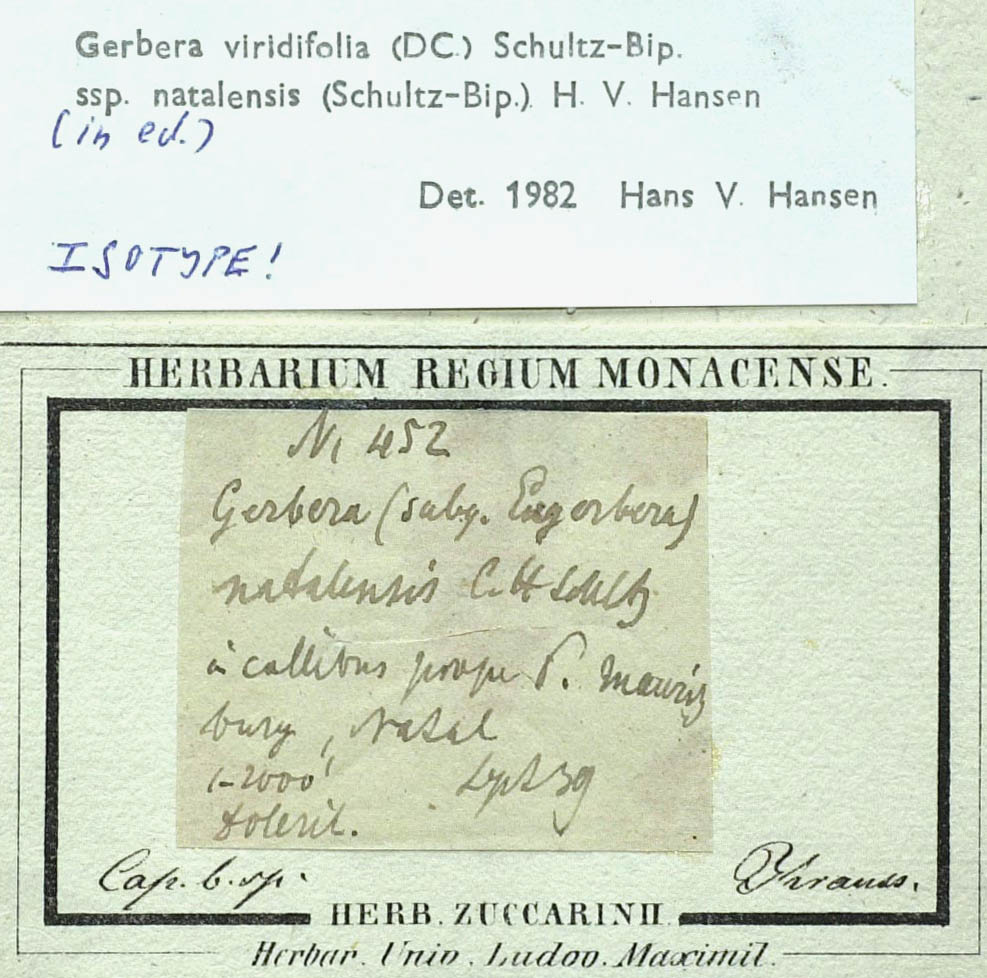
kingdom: Plantae
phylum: Tracheophyta
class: Magnoliopsida
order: Asterales
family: Asteraceae
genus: Gerbera
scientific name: Gerbera natalensis
